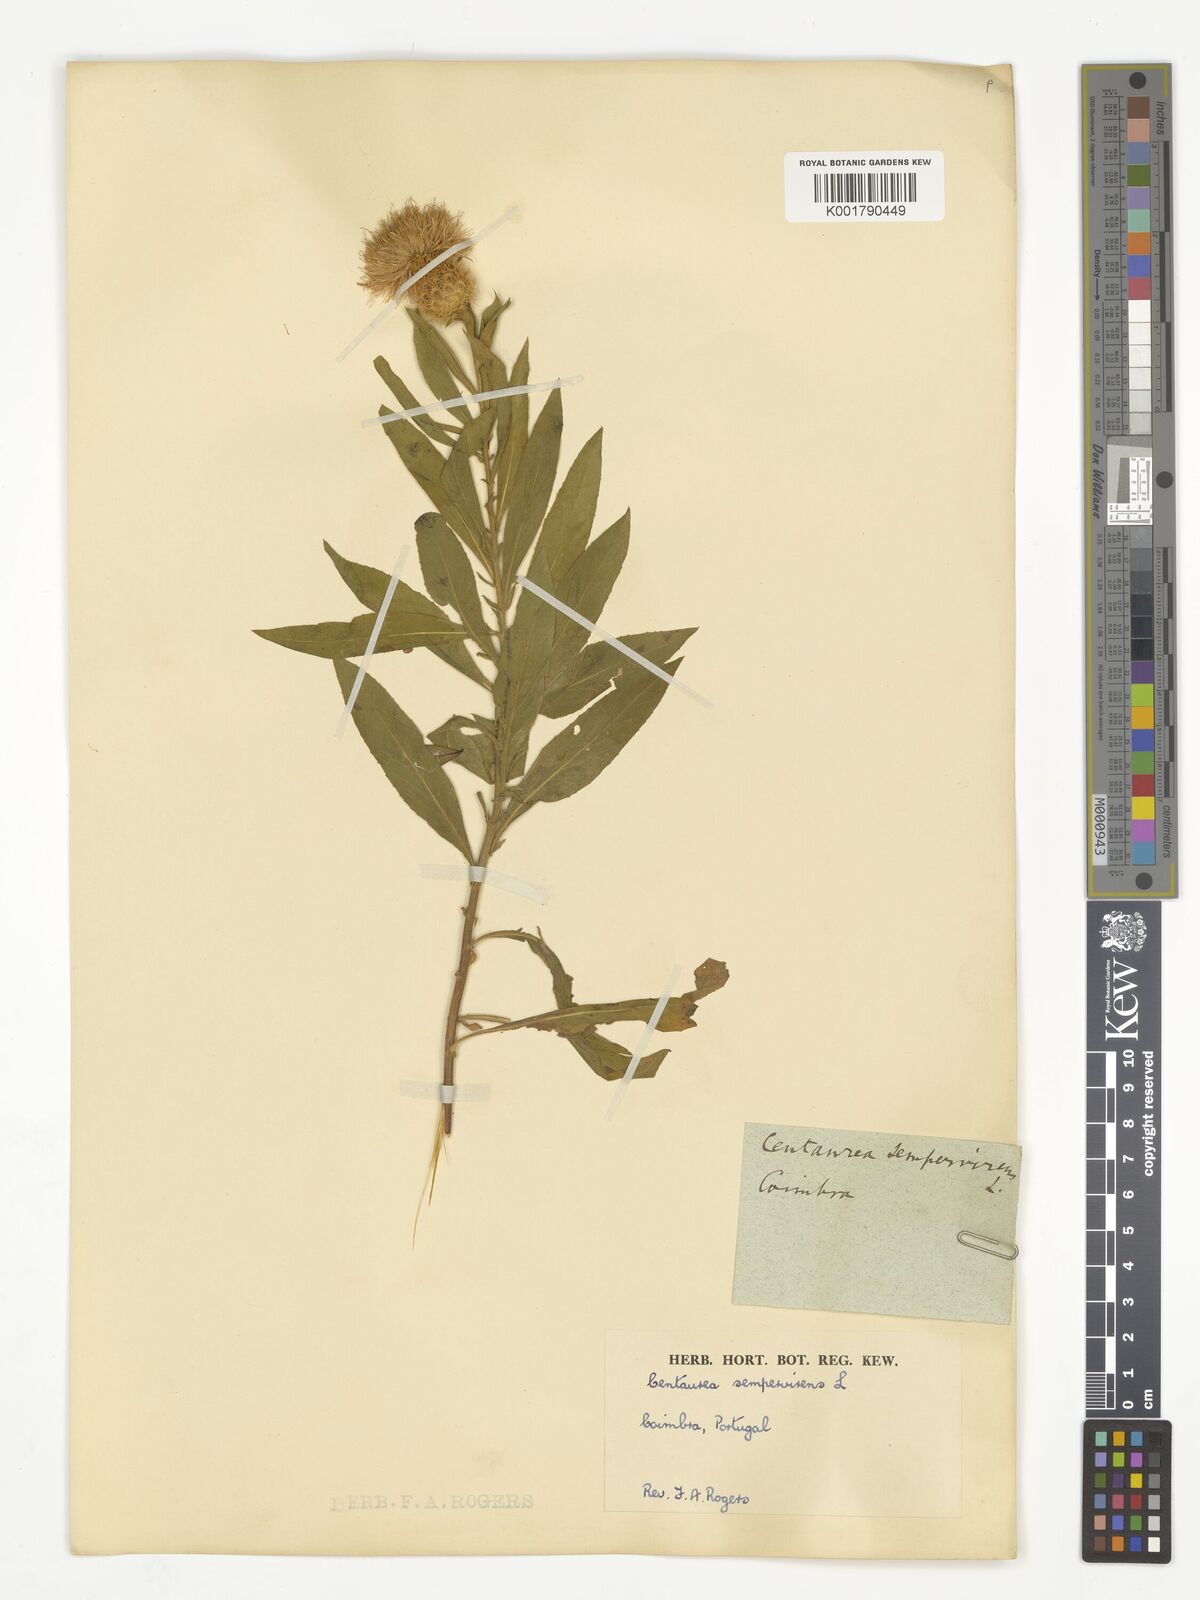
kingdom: Plantae
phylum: Tracheophyta
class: Magnoliopsida
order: Asterales
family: Asteraceae
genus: Cheirolophus
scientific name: Cheirolophus sempervirens
